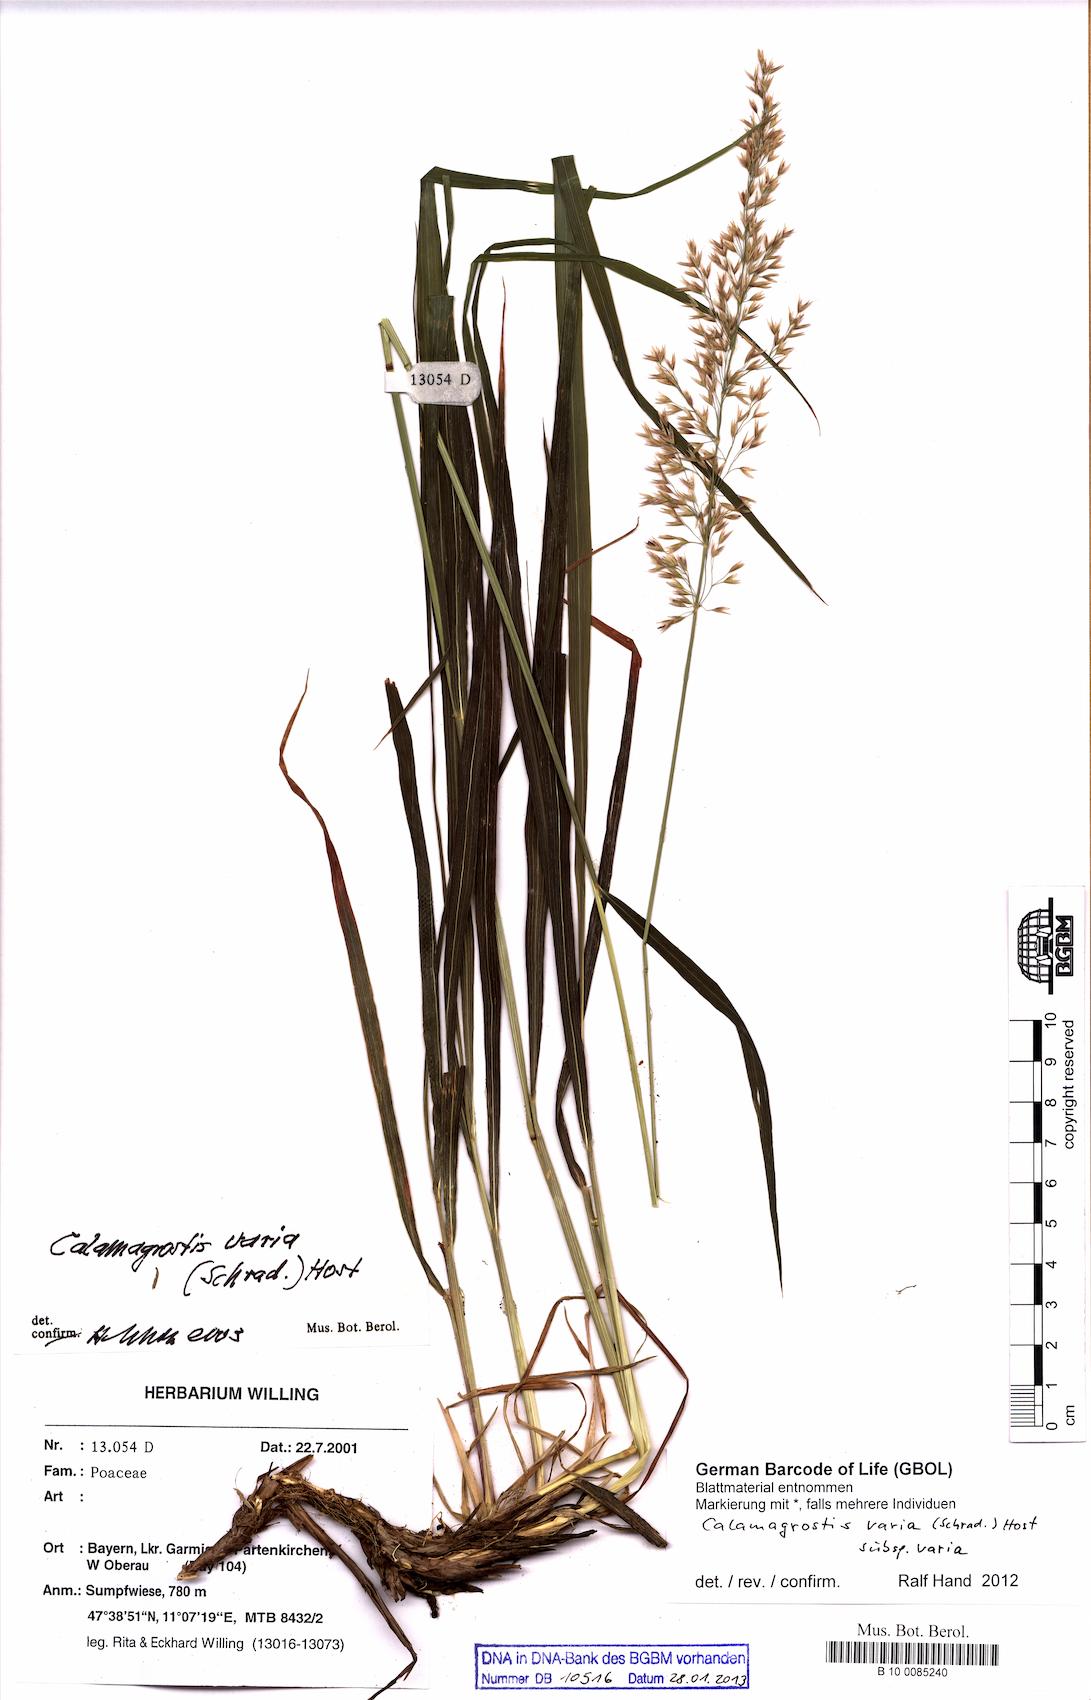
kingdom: Plantae
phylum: Tracheophyta
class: Liliopsida
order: Poales
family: Poaceae
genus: Calamagrostis
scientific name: Calamagrostis varia
